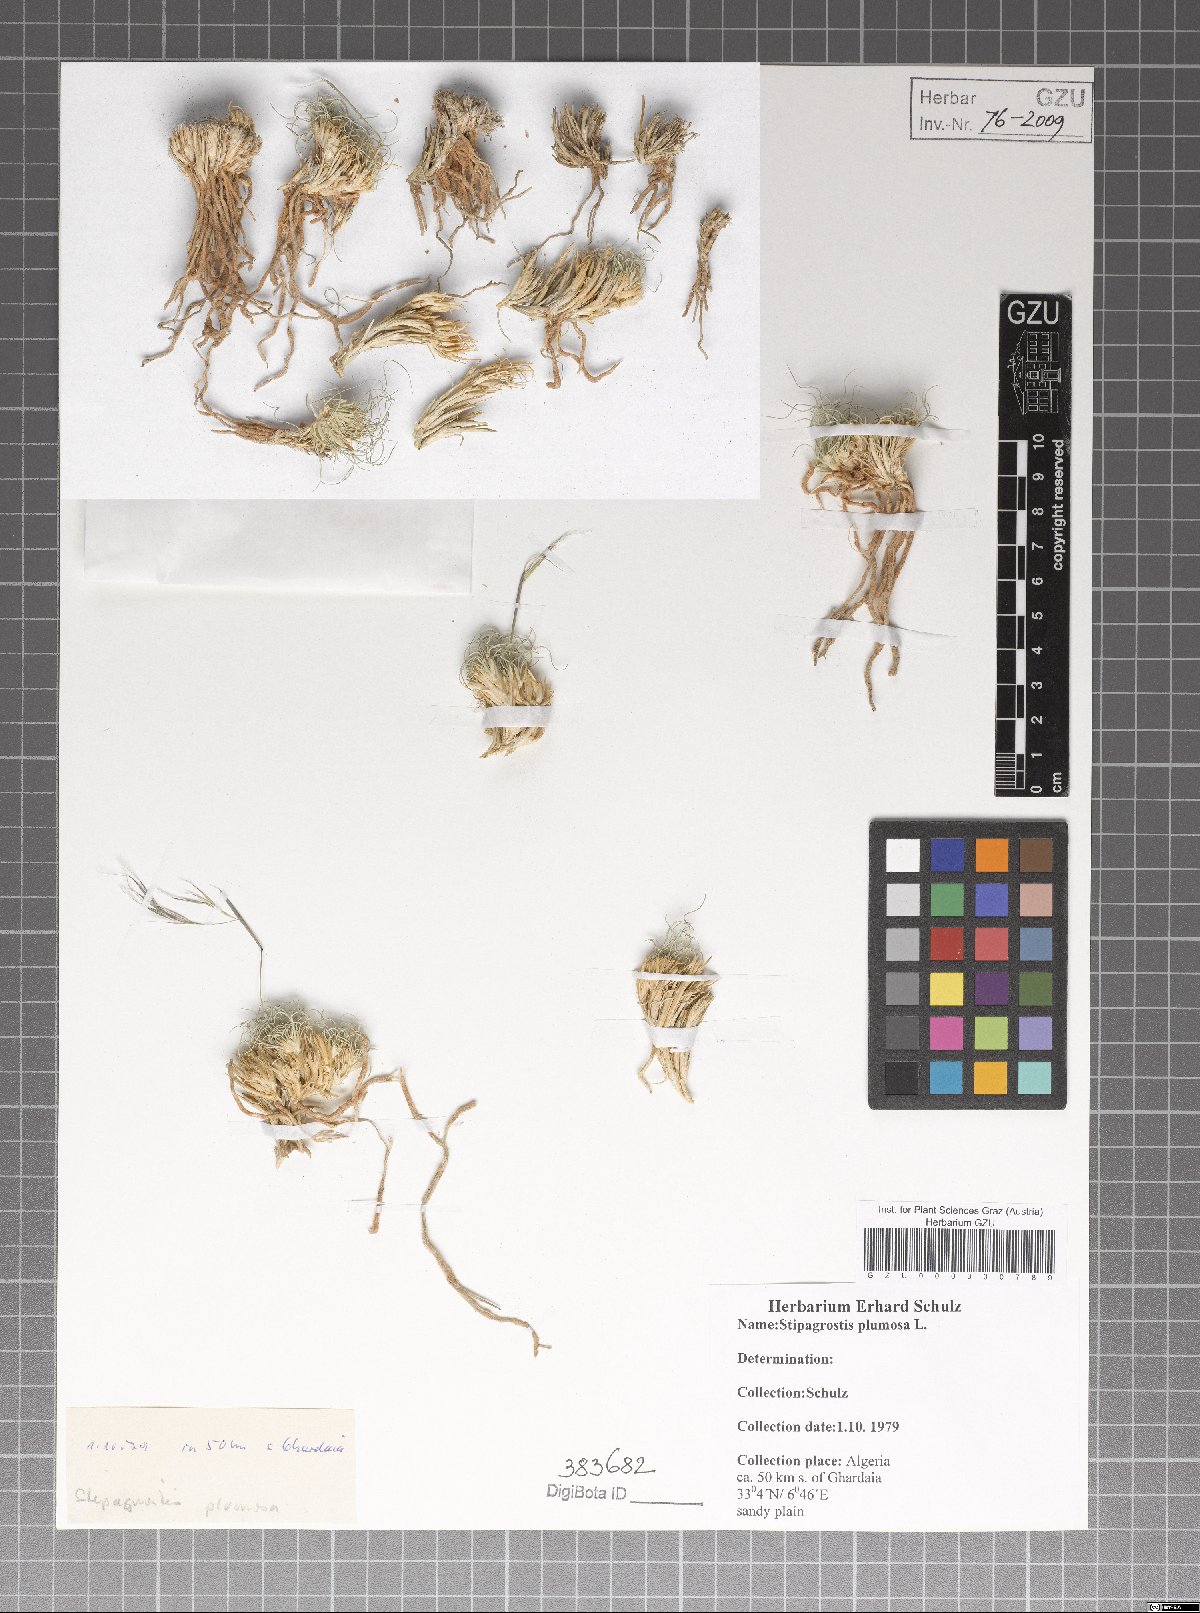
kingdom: Plantae
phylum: Tracheophyta
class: Liliopsida
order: Poales
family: Poaceae
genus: Stipagrostis
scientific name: Stipagrostis plumosa
